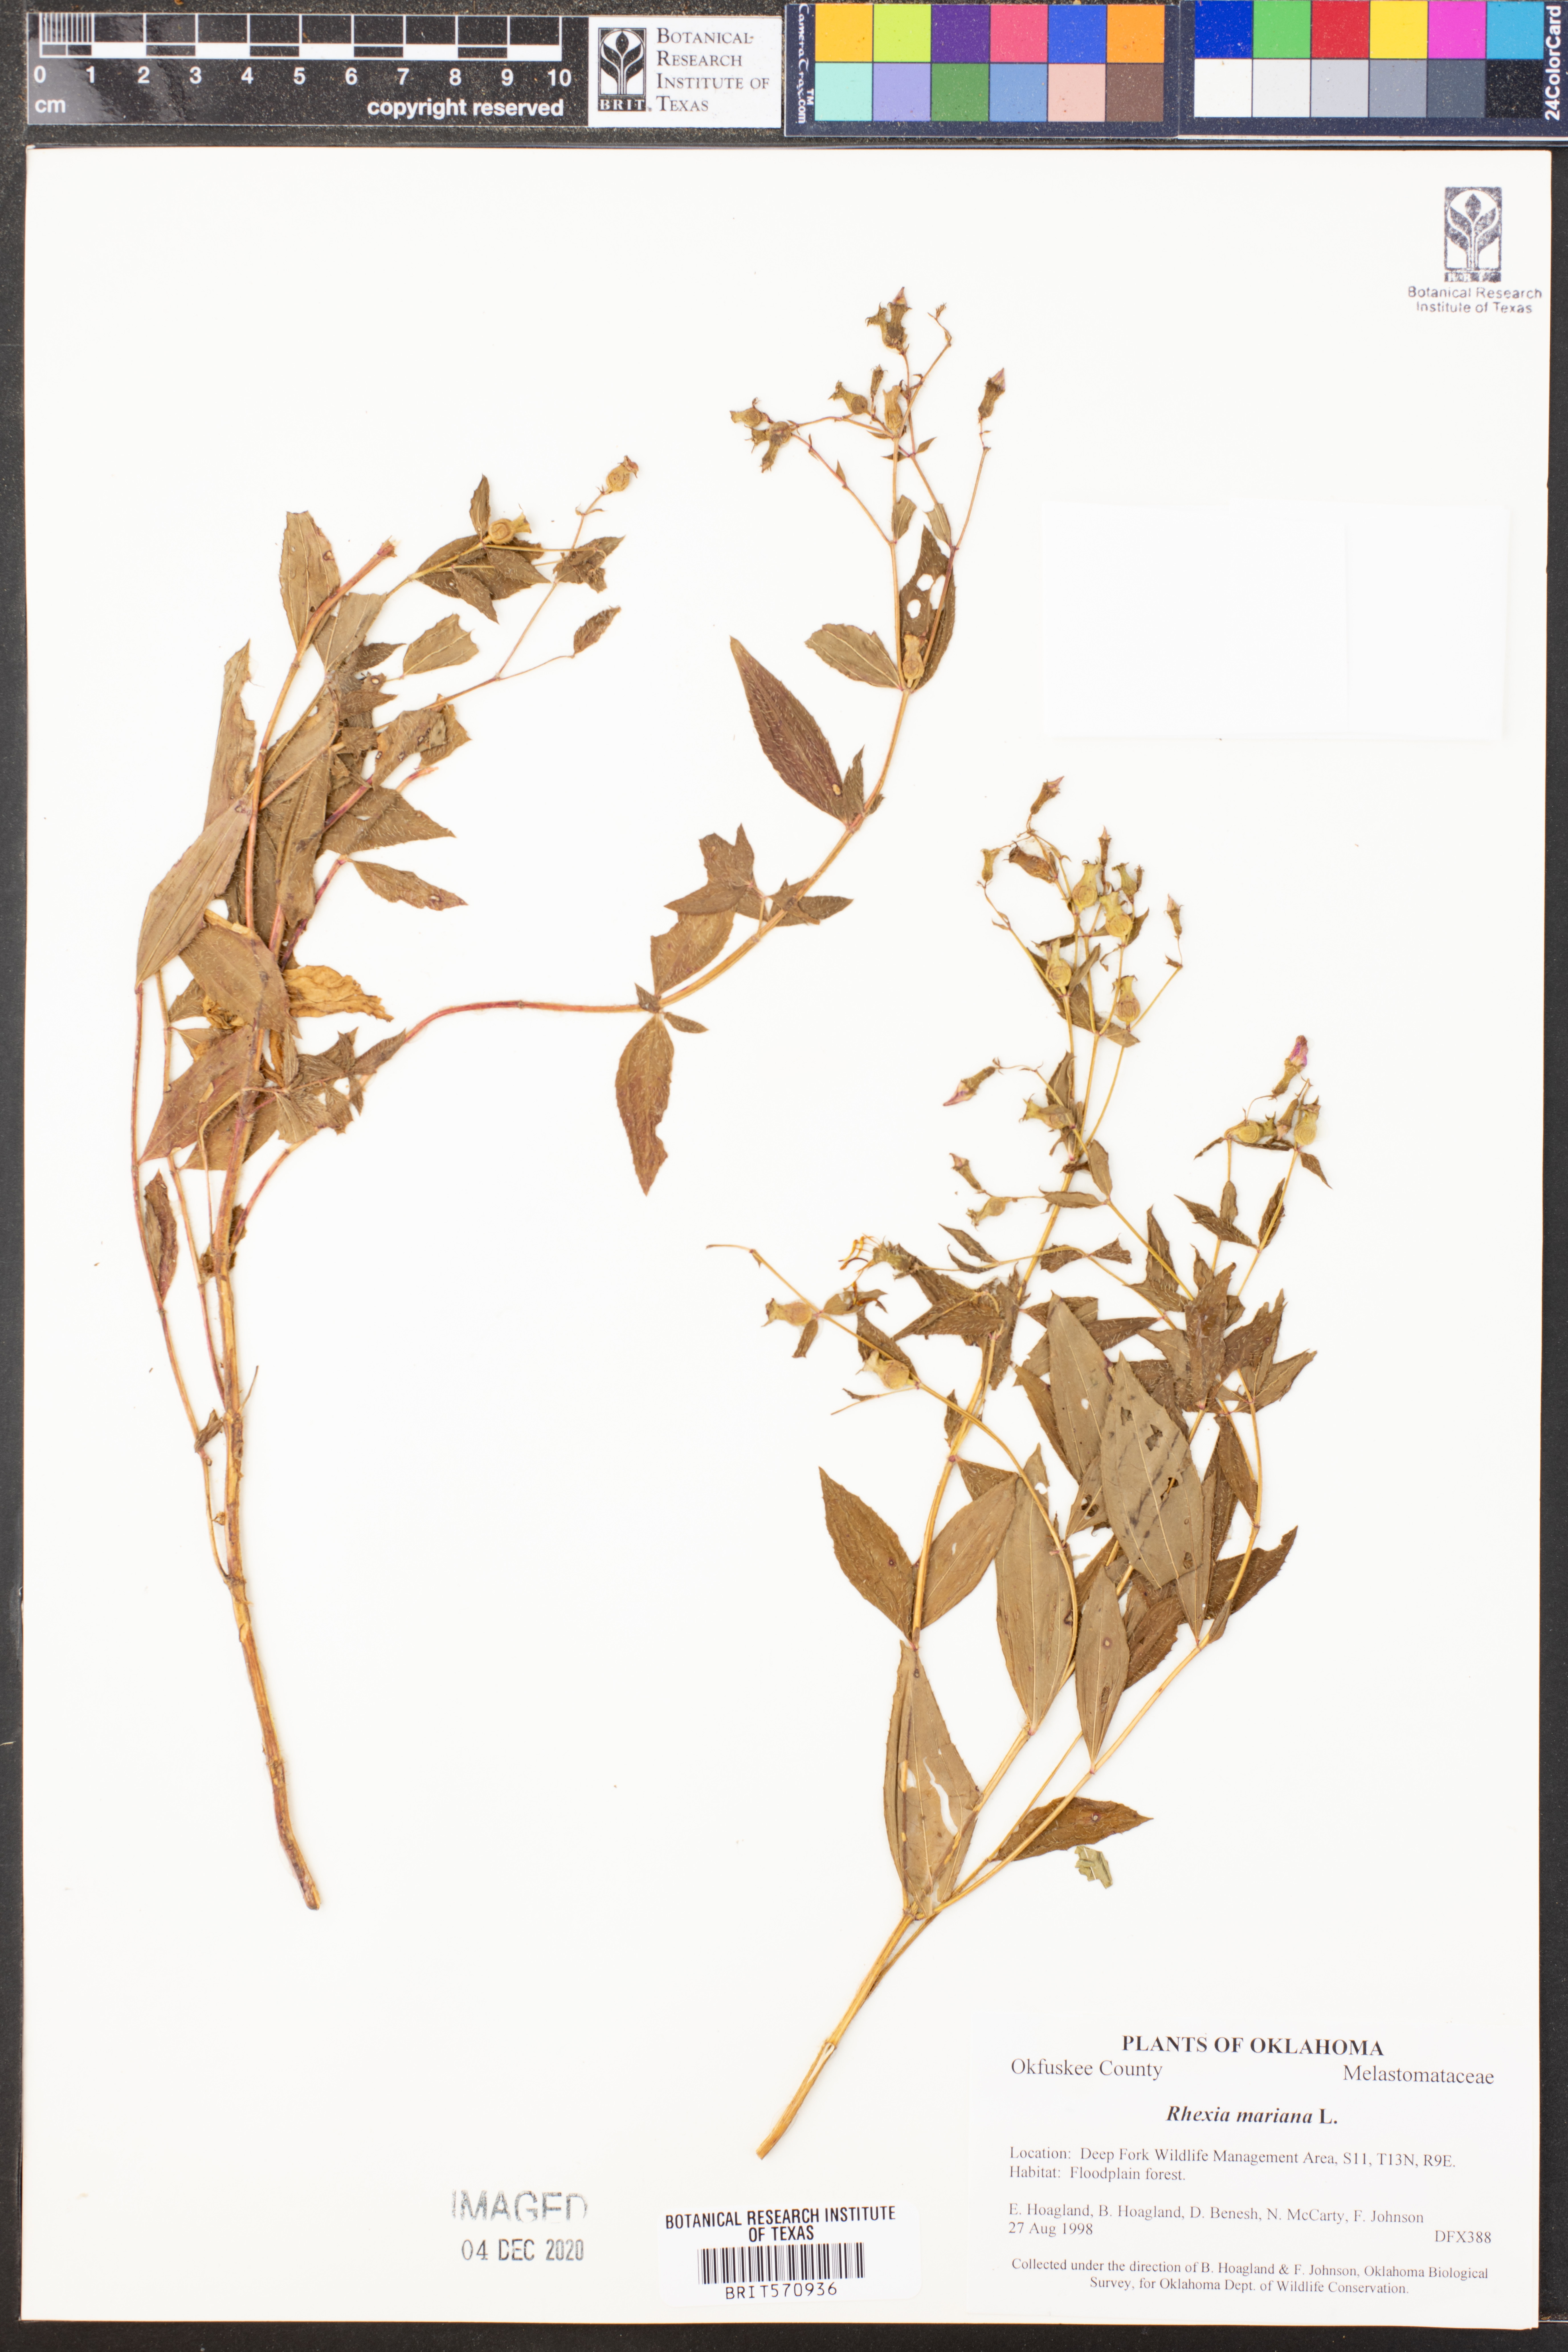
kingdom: Plantae
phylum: Tracheophyta
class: Magnoliopsida
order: Myrtales
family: Melastomataceae
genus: Rhexia
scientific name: Rhexia mariana
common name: Dull meadow-pitcher
